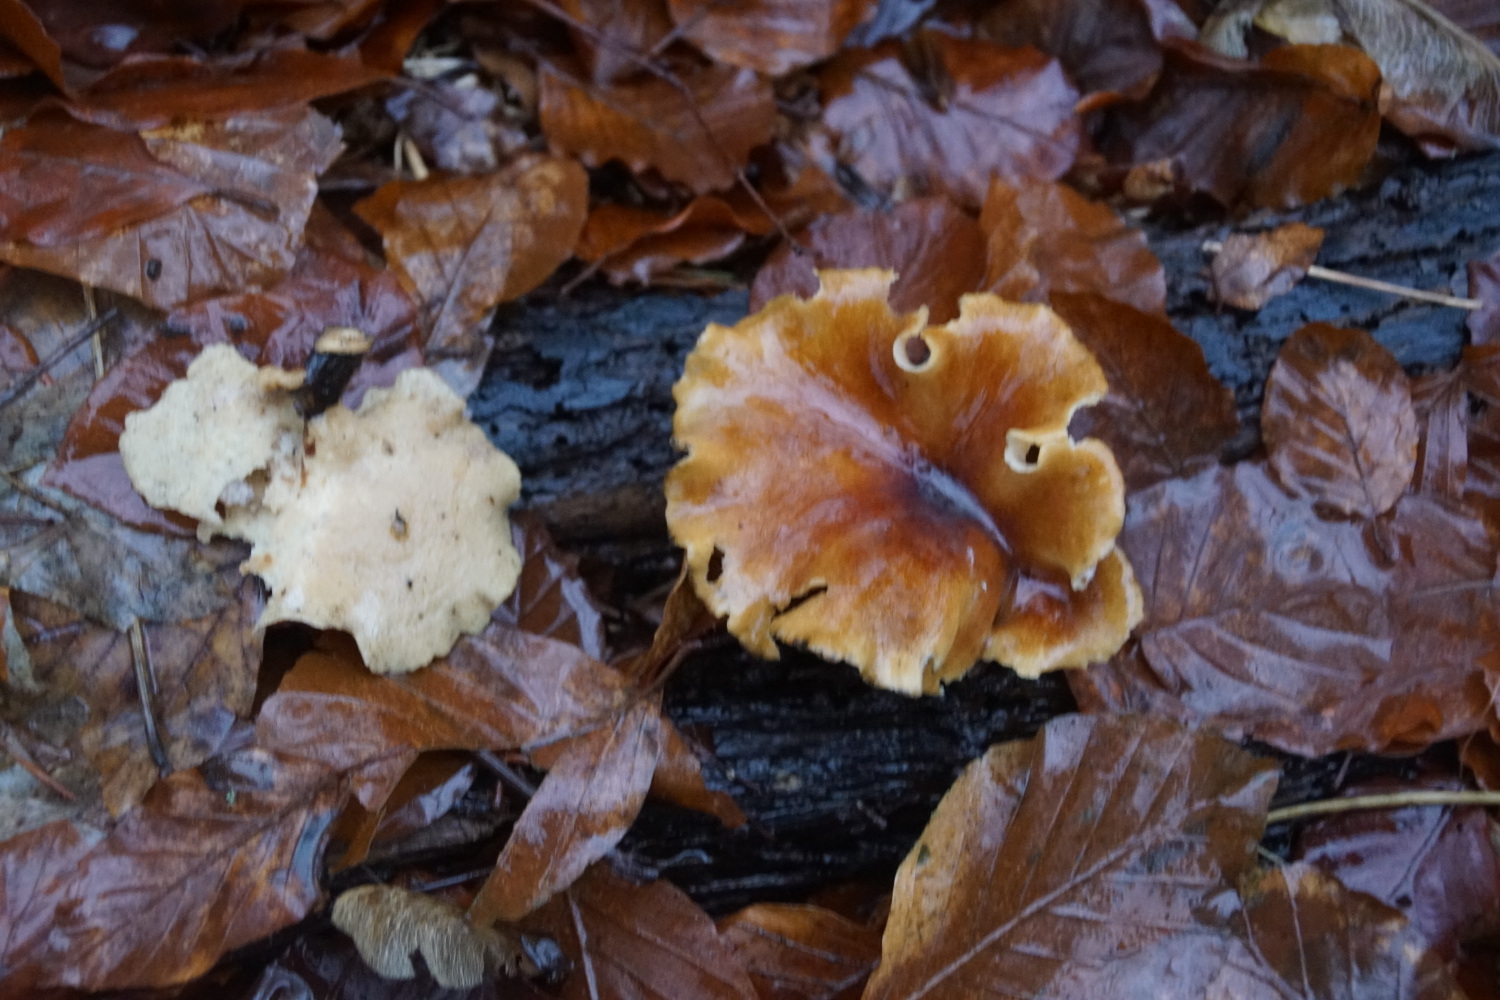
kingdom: Fungi
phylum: Basidiomycota
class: Agaricomycetes
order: Polyporales
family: Polyporaceae
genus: Picipes
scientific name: Picipes badius
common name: kastaniebrun stilkporesvamp
